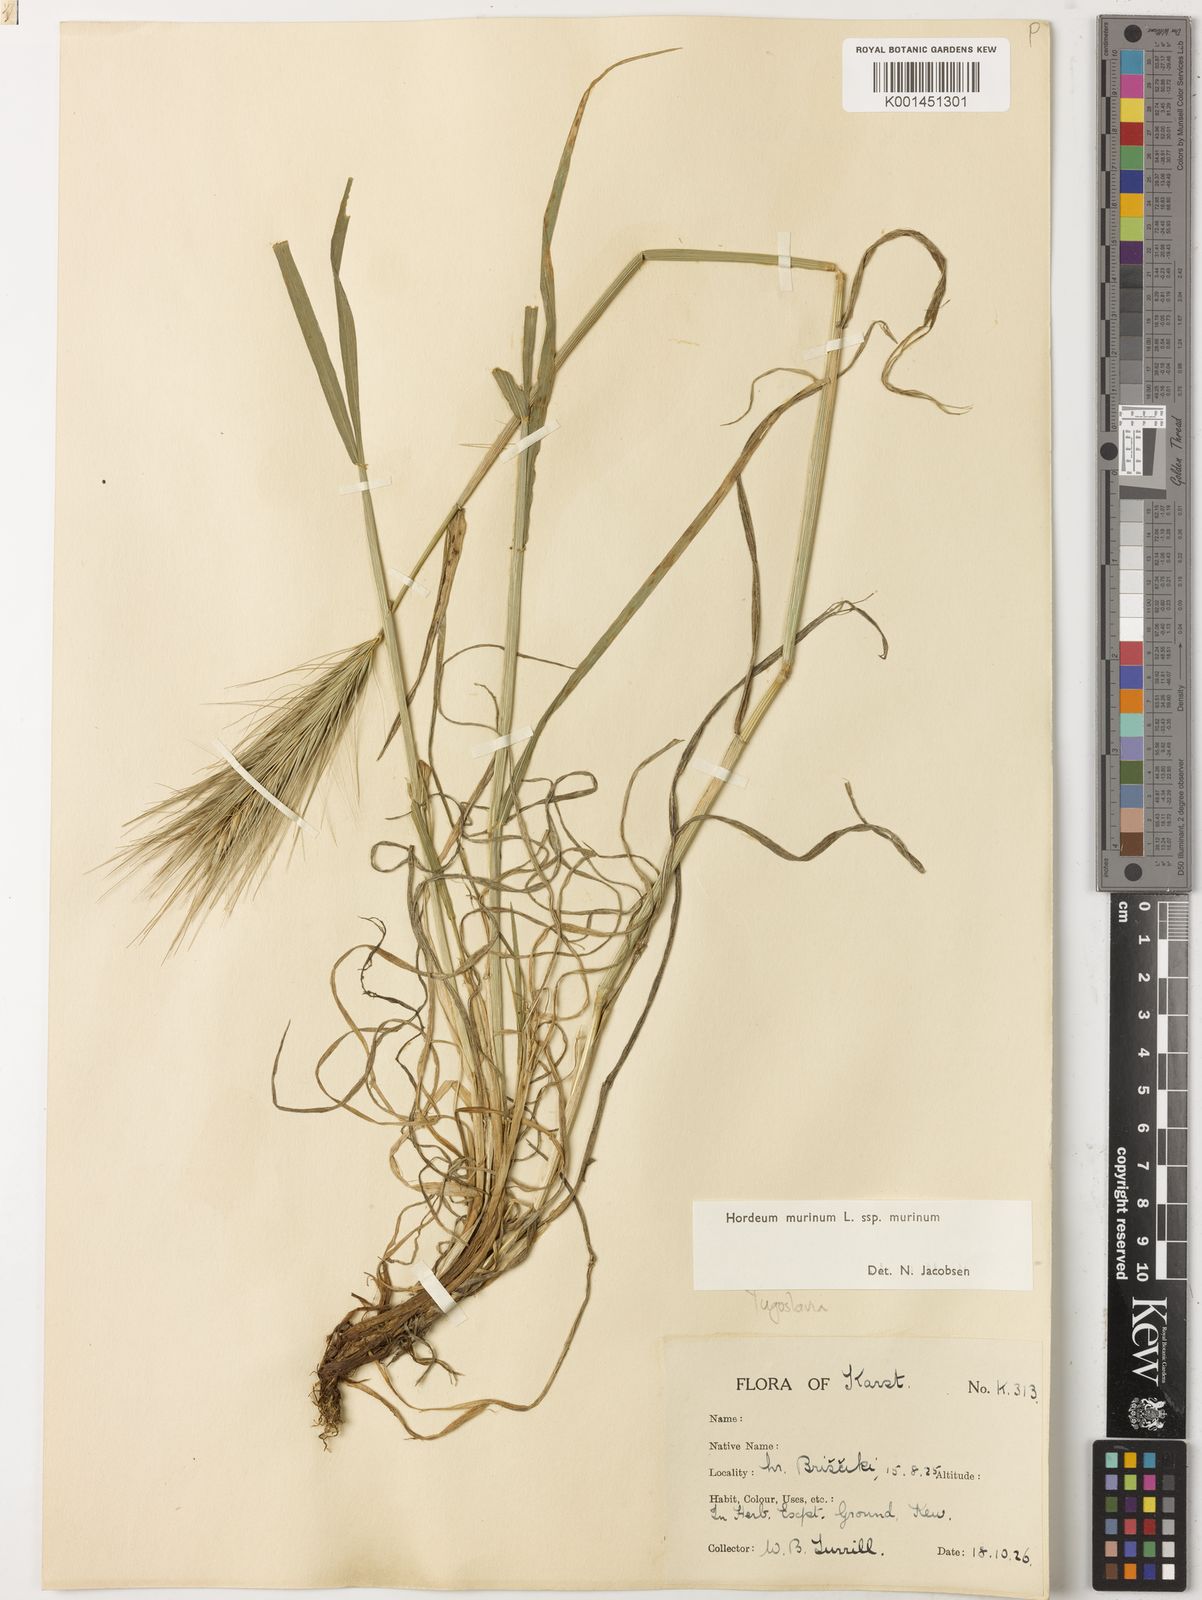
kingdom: Plantae
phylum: Tracheophyta
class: Liliopsida
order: Poales
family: Poaceae
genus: Hordeum
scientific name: Hordeum murinum
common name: Wall barley
